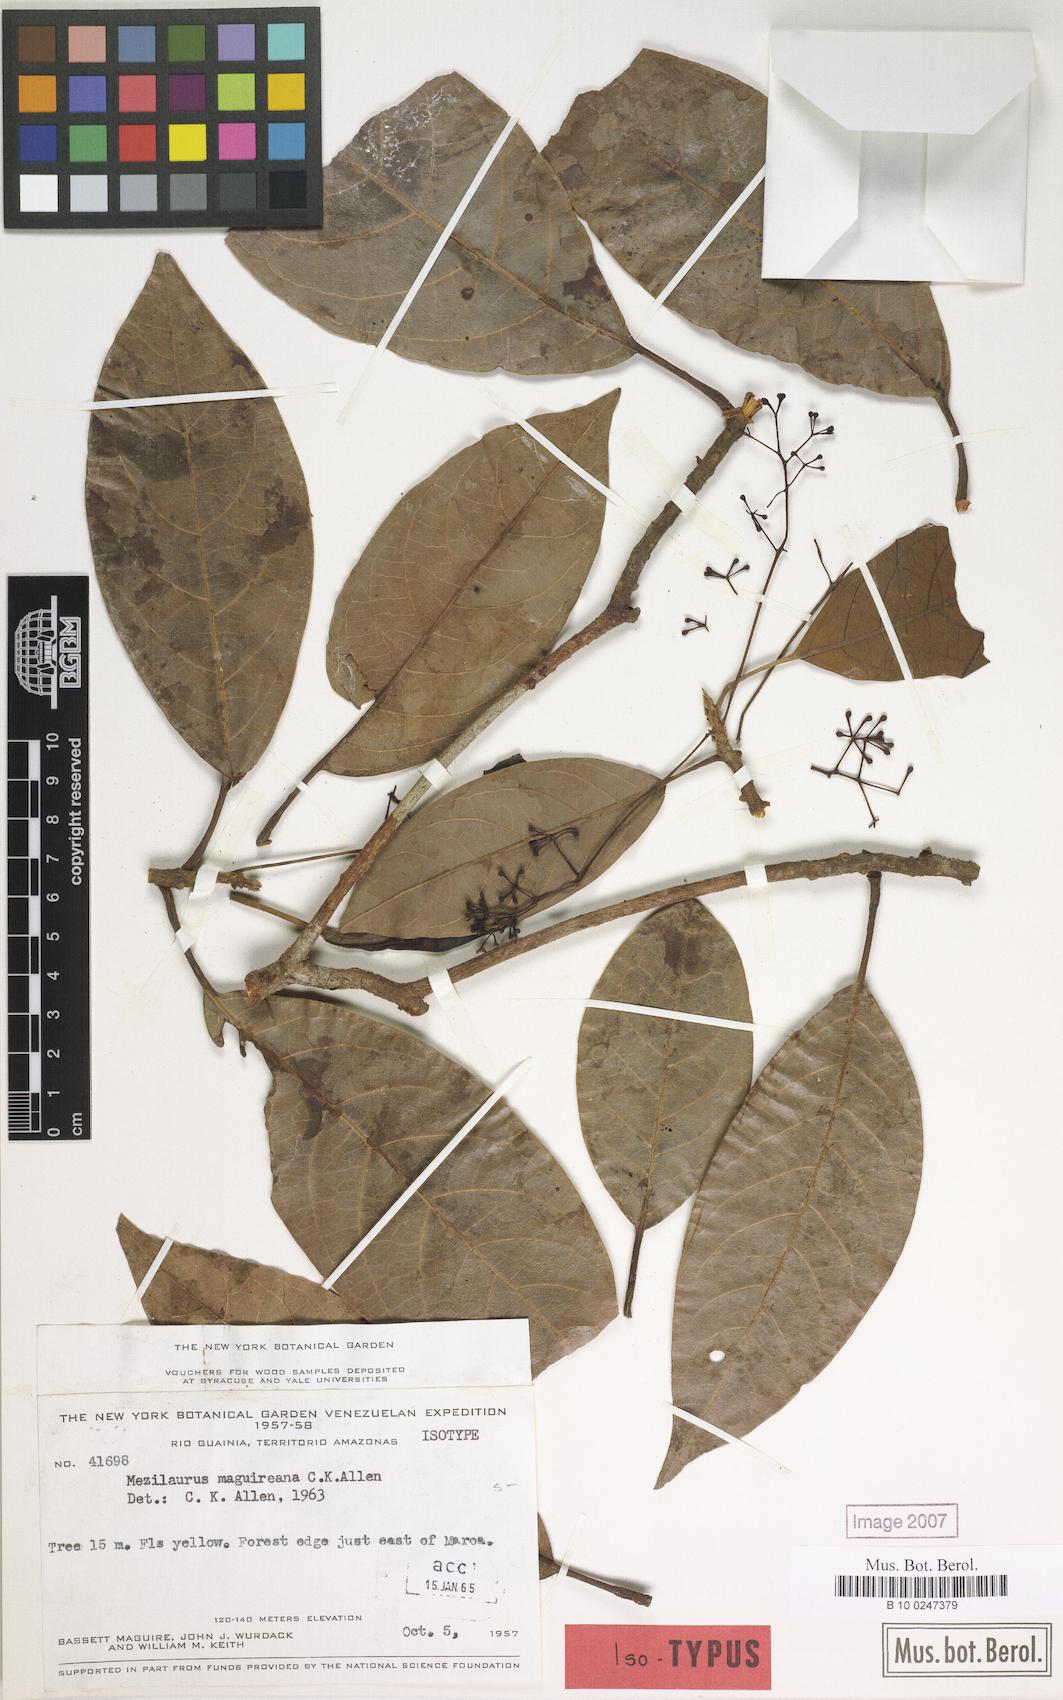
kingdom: Plantae
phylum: Tracheophyta
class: Magnoliopsida
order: Laurales
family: Lauraceae
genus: Mezilaurus
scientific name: Mezilaurus sprucei
